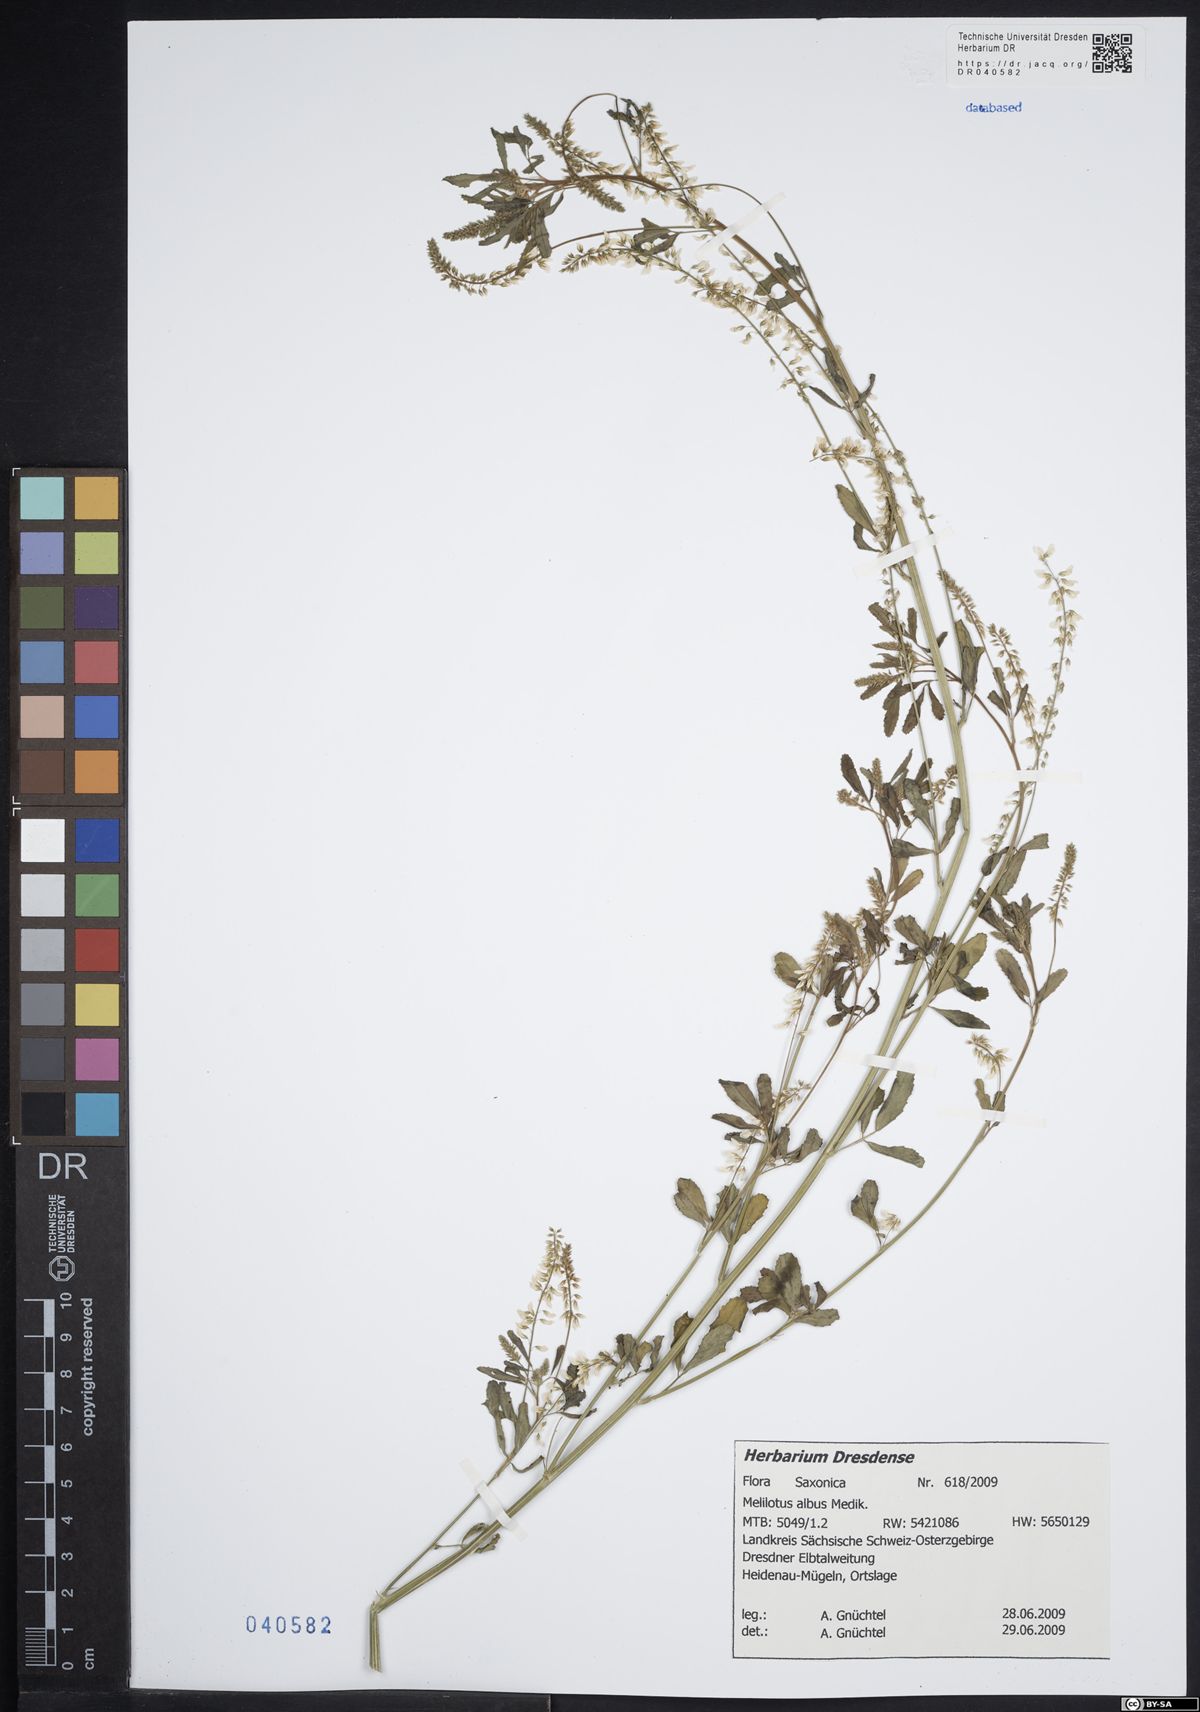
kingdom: Plantae
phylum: Tracheophyta
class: Magnoliopsida
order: Fabales
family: Fabaceae
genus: Melilotus
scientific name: Melilotus albus
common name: White melilot
